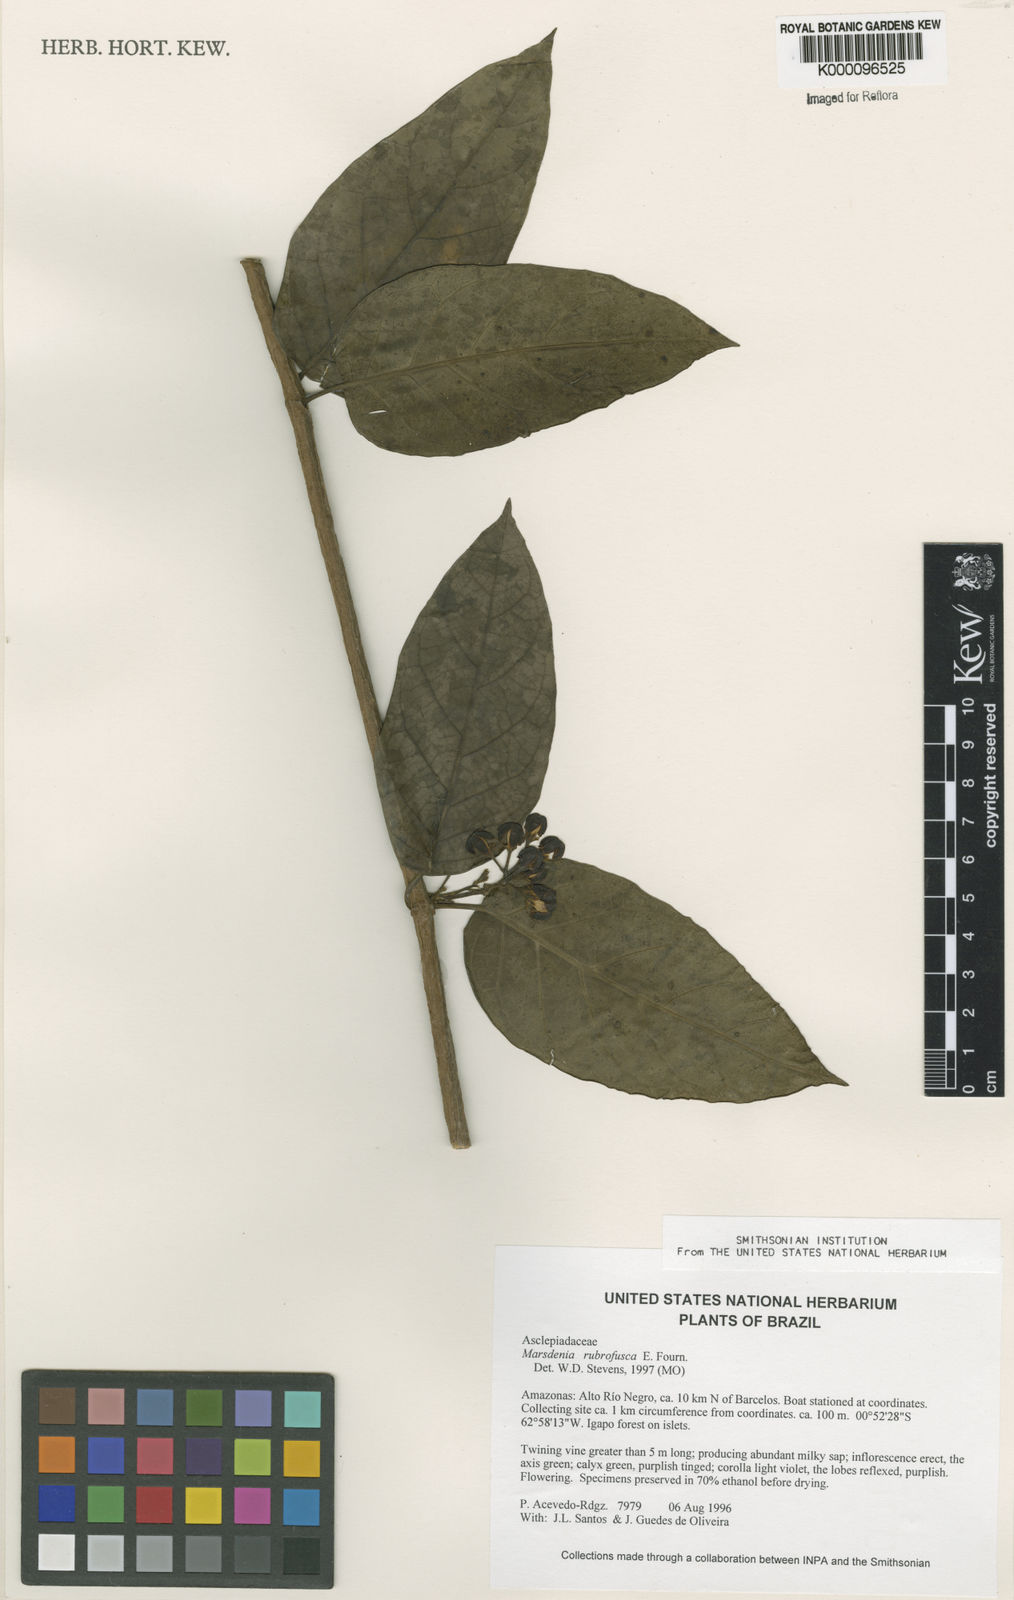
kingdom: Plantae
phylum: Tracheophyta
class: Magnoliopsida
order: Gentianales
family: Apocynaceae
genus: Ruehssia
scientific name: Ruehssia rubrofusca
